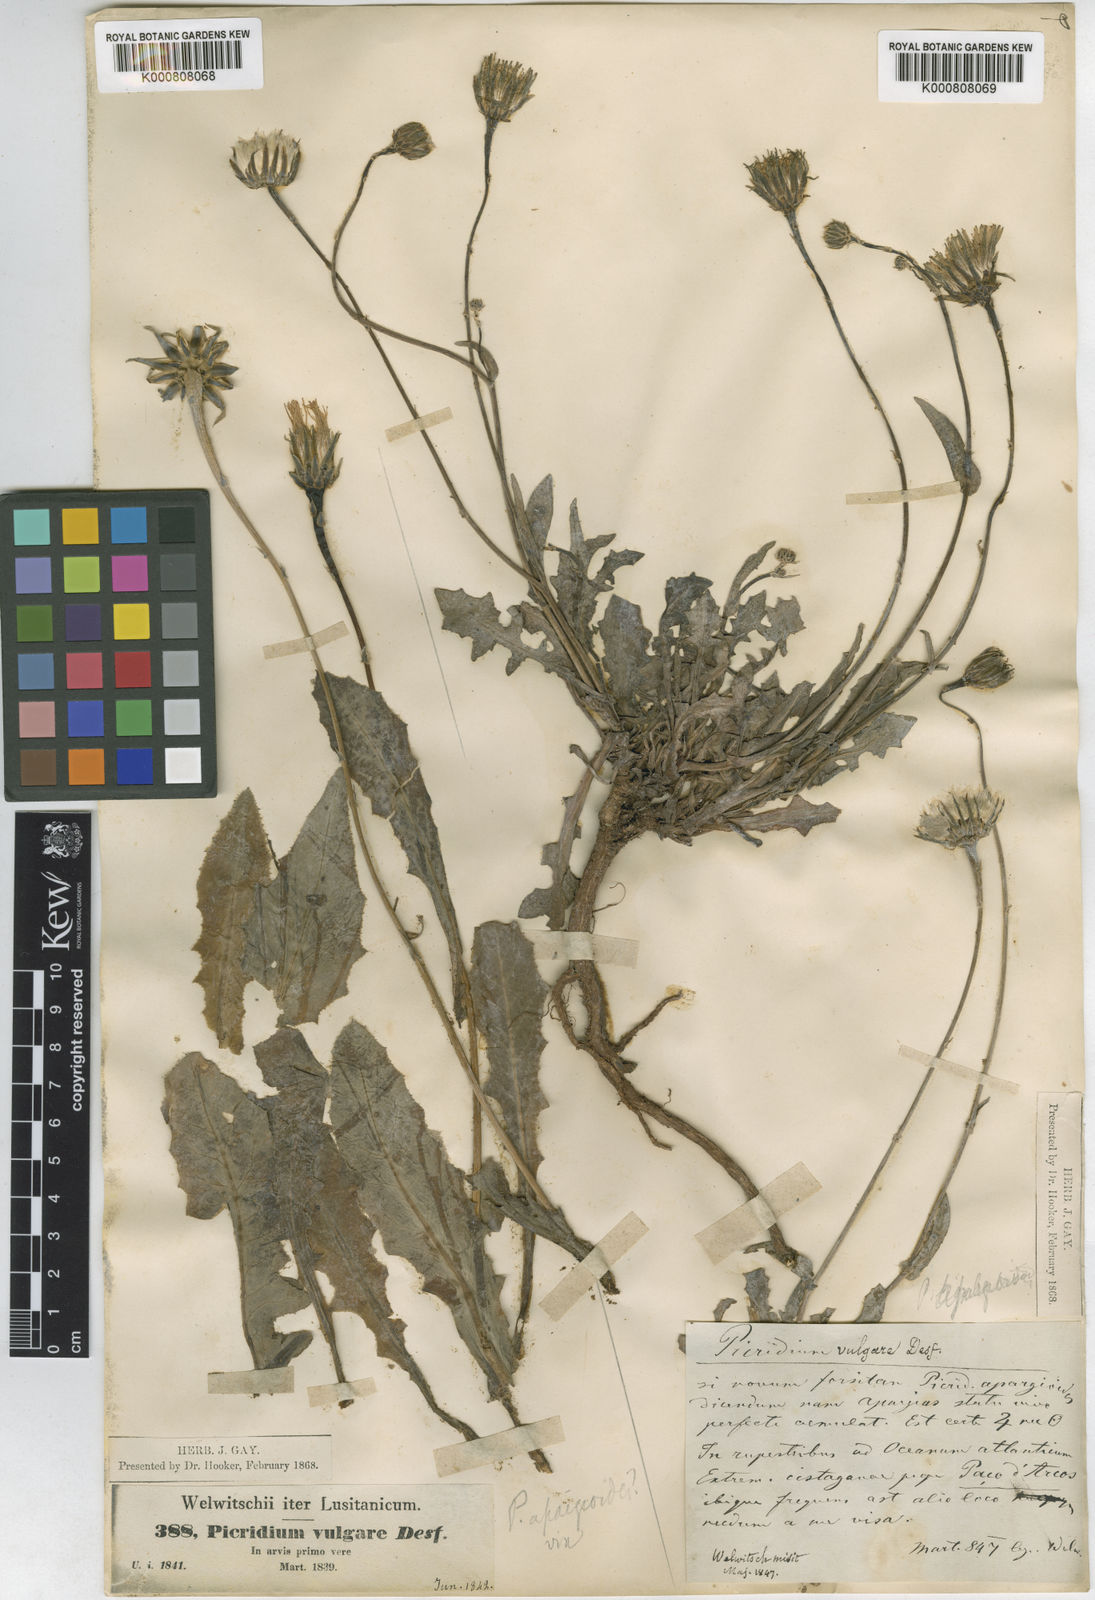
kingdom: Plantae
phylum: Tracheophyta
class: Magnoliopsida
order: Asterales
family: Asteraceae
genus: Reichardia
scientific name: Reichardia intermedia
